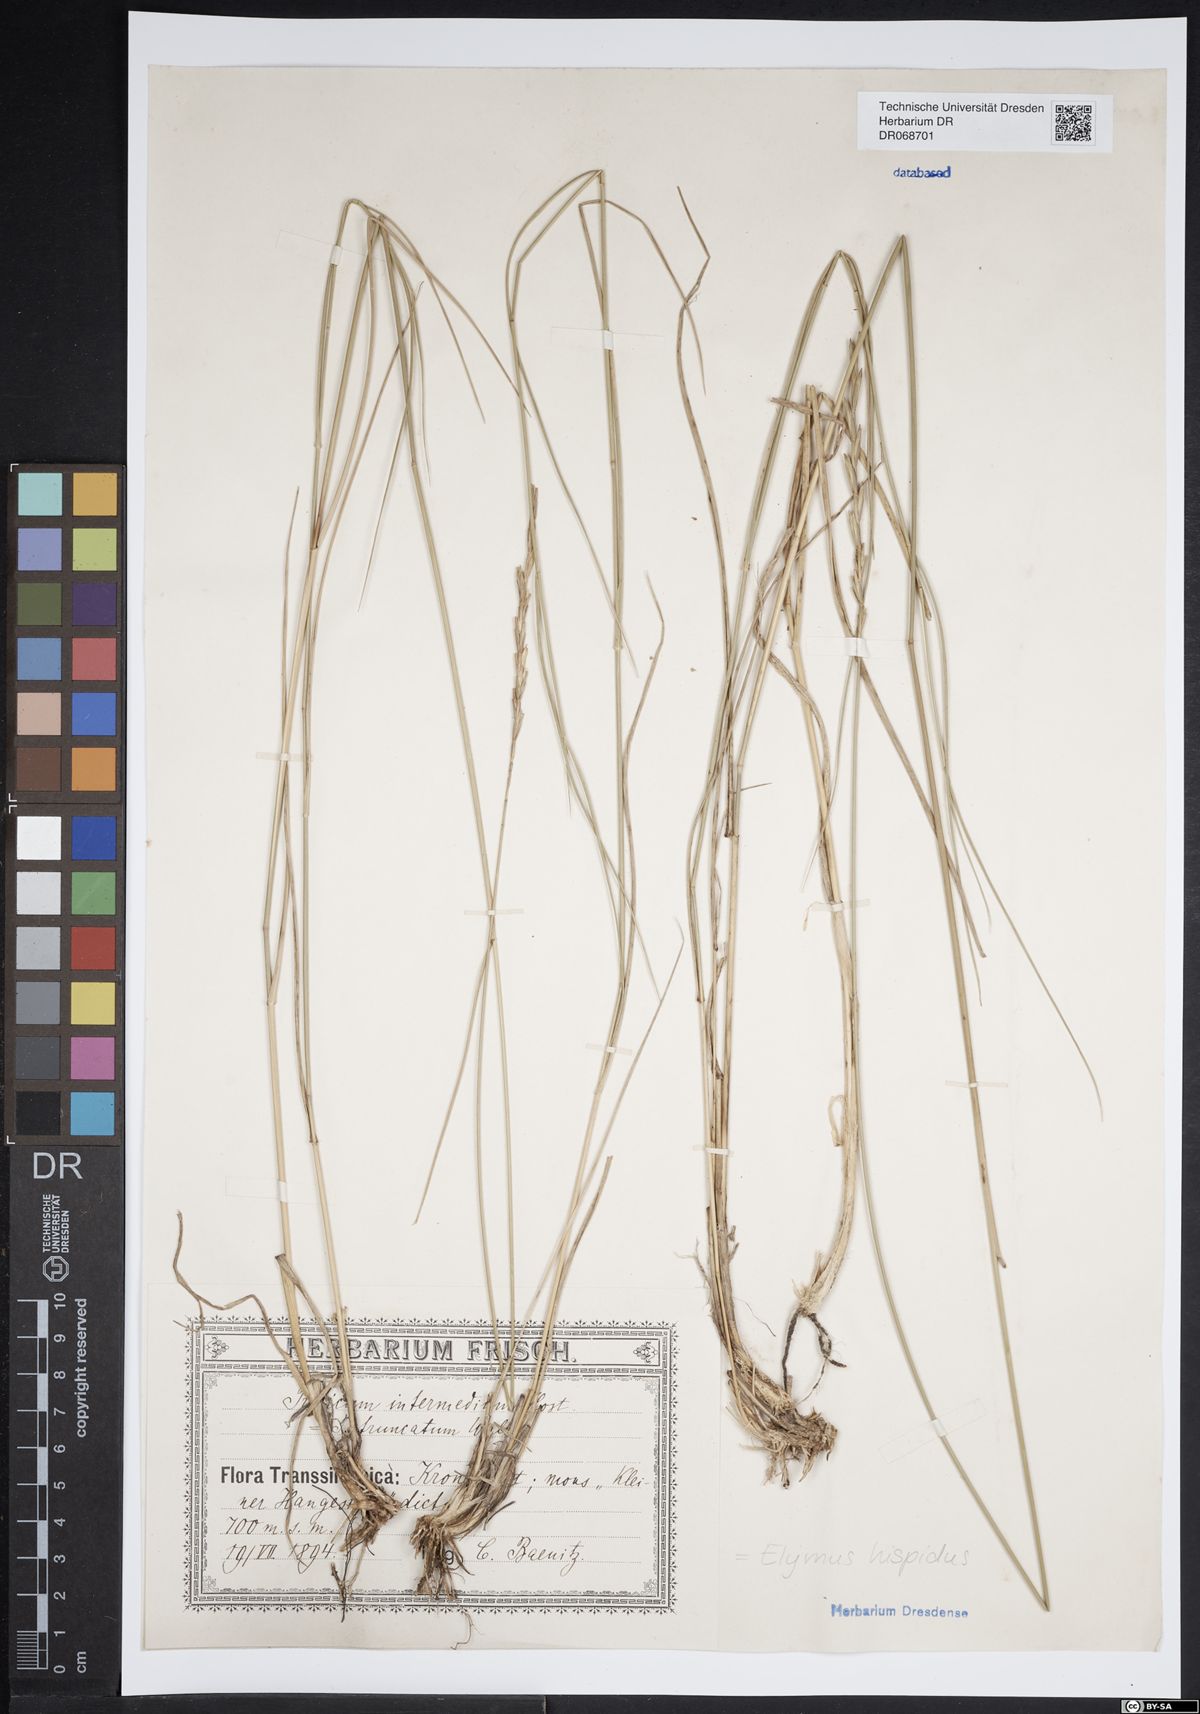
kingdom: Plantae
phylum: Tracheophyta
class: Liliopsida
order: Poales
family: Poaceae
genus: Thinopyrum
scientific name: Thinopyrum intermedium
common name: Intermediate wheatgrass
